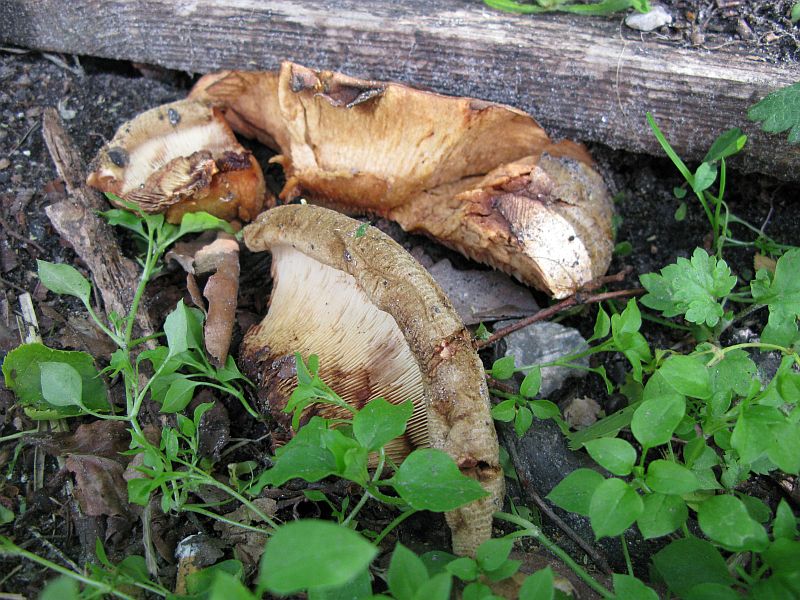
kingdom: Fungi
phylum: Basidiomycota
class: Agaricomycetes
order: Boletales
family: Paxillaceae
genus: Paxillus
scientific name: Paxillus obscurisporus
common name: mahognisporet netbladhat
